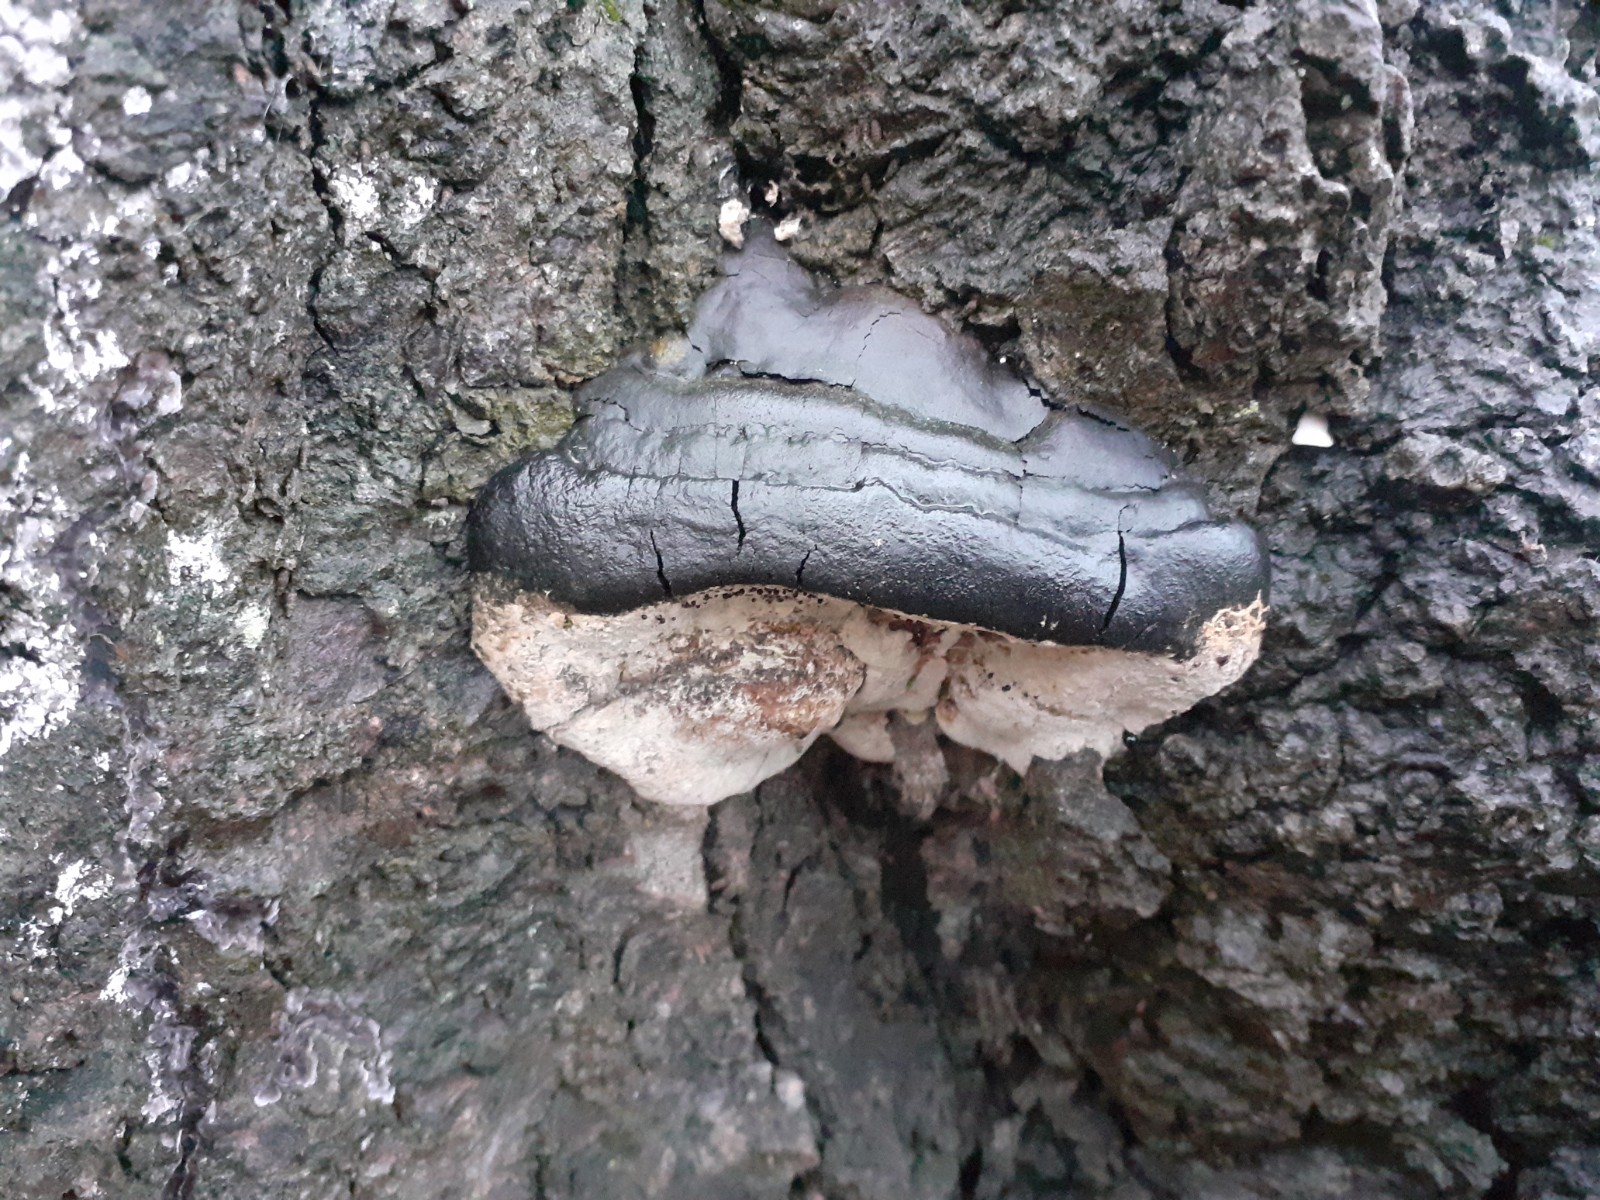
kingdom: Fungi
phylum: Basidiomycota
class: Agaricomycetes
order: Polyporales
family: Polyporaceae
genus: Vanderbylia
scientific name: Vanderbylia fraxinea
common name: stor kanelporesvamp
